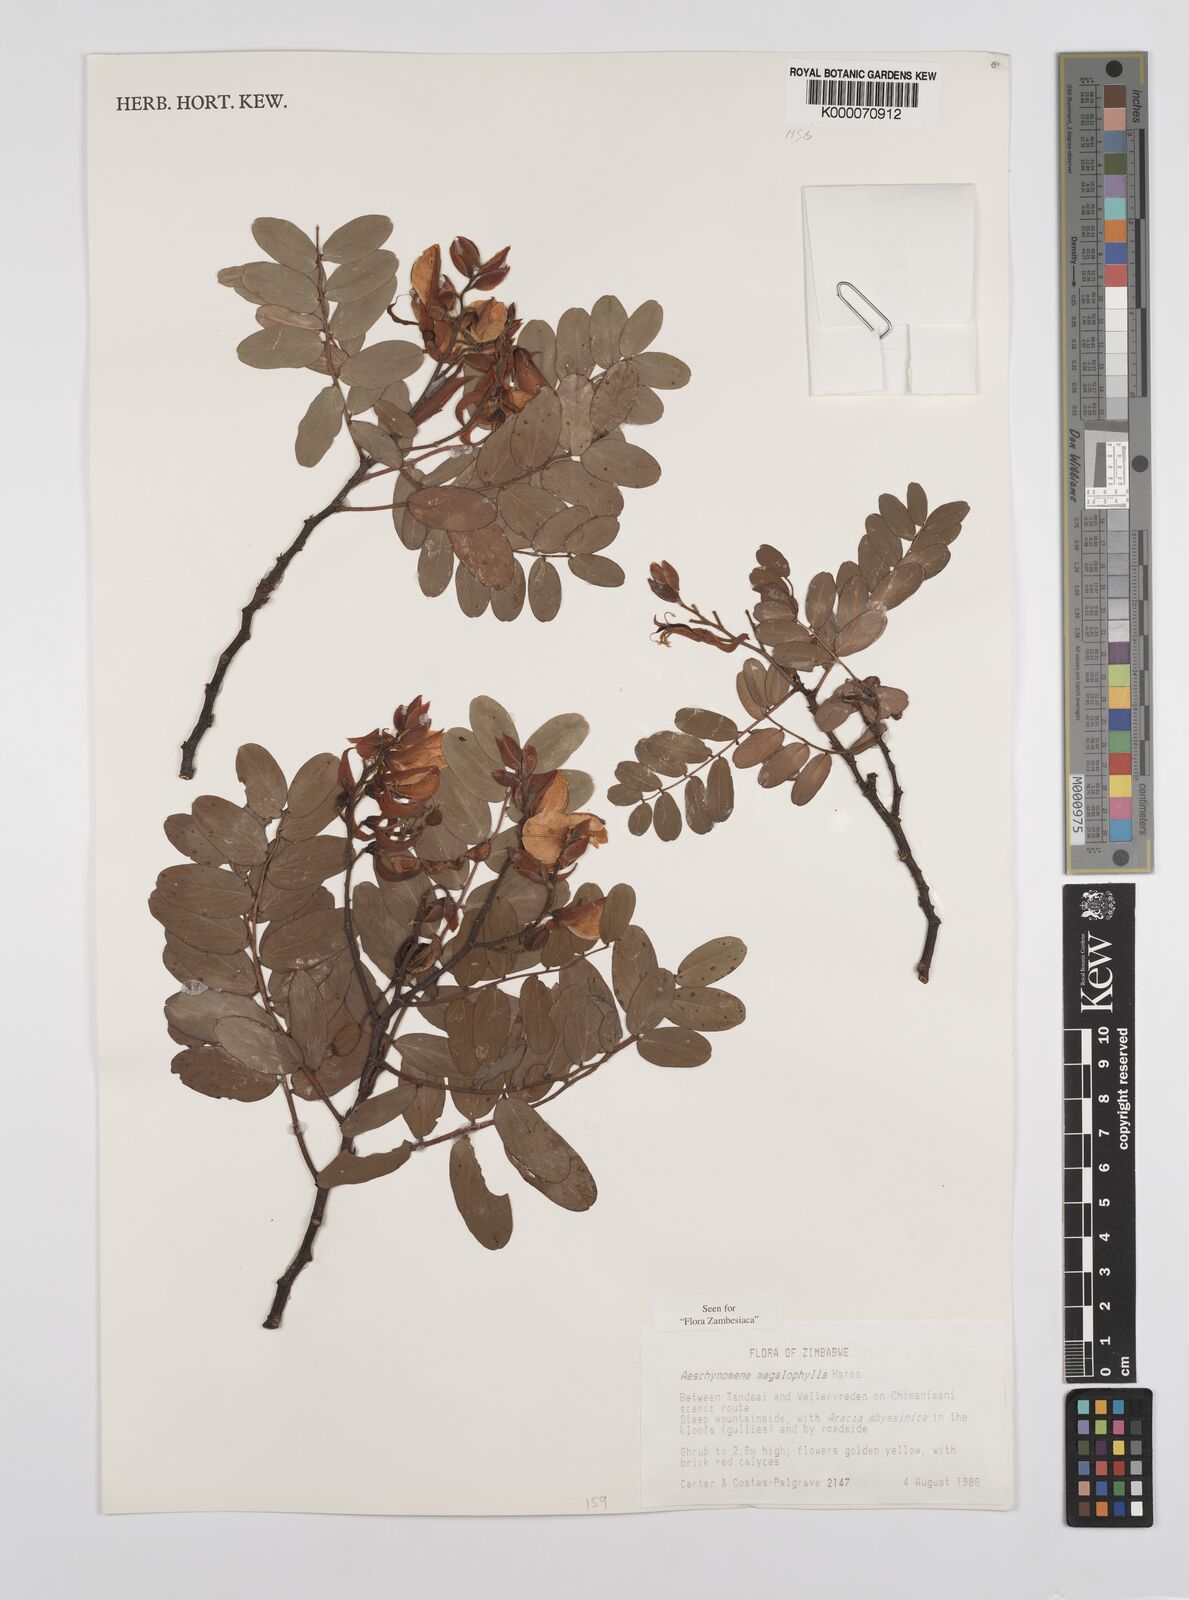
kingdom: Plantae
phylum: Tracheophyta
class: Magnoliopsida
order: Fabales
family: Fabaceae
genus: Aeschynomene
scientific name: Aeschynomene megalophylla
